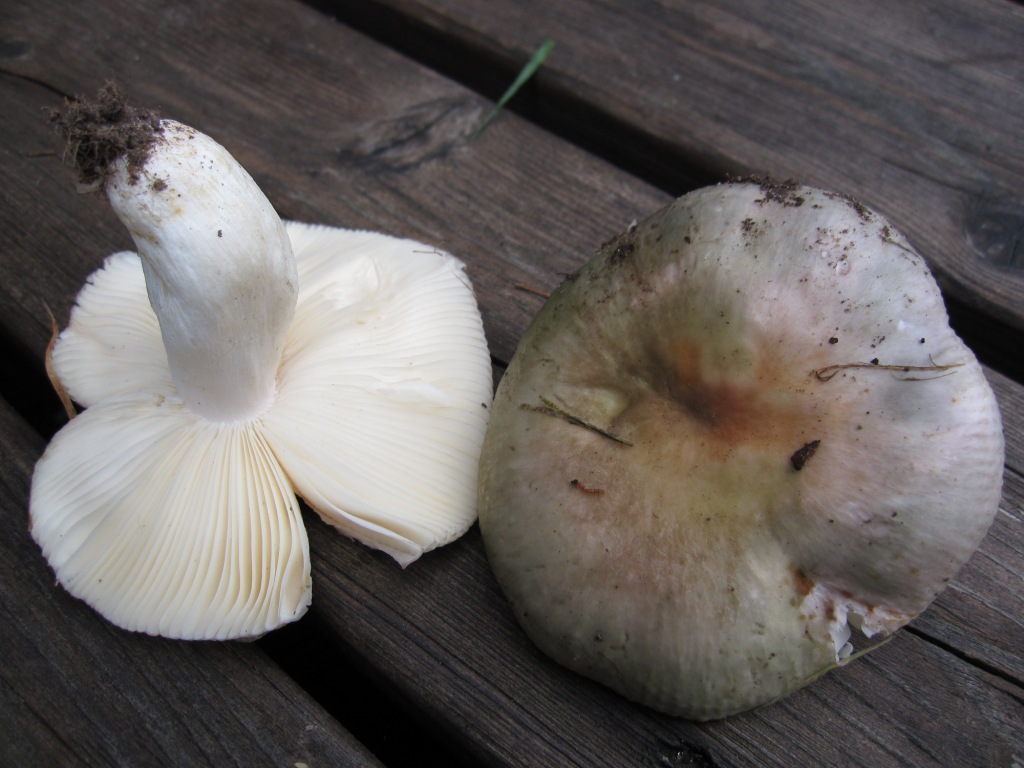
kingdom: Fungi
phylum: Basidiomycota
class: Agaricomycetes
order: Russulales
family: Russulaceae
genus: Russula
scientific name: Russula grisea
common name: grålig skørhat
